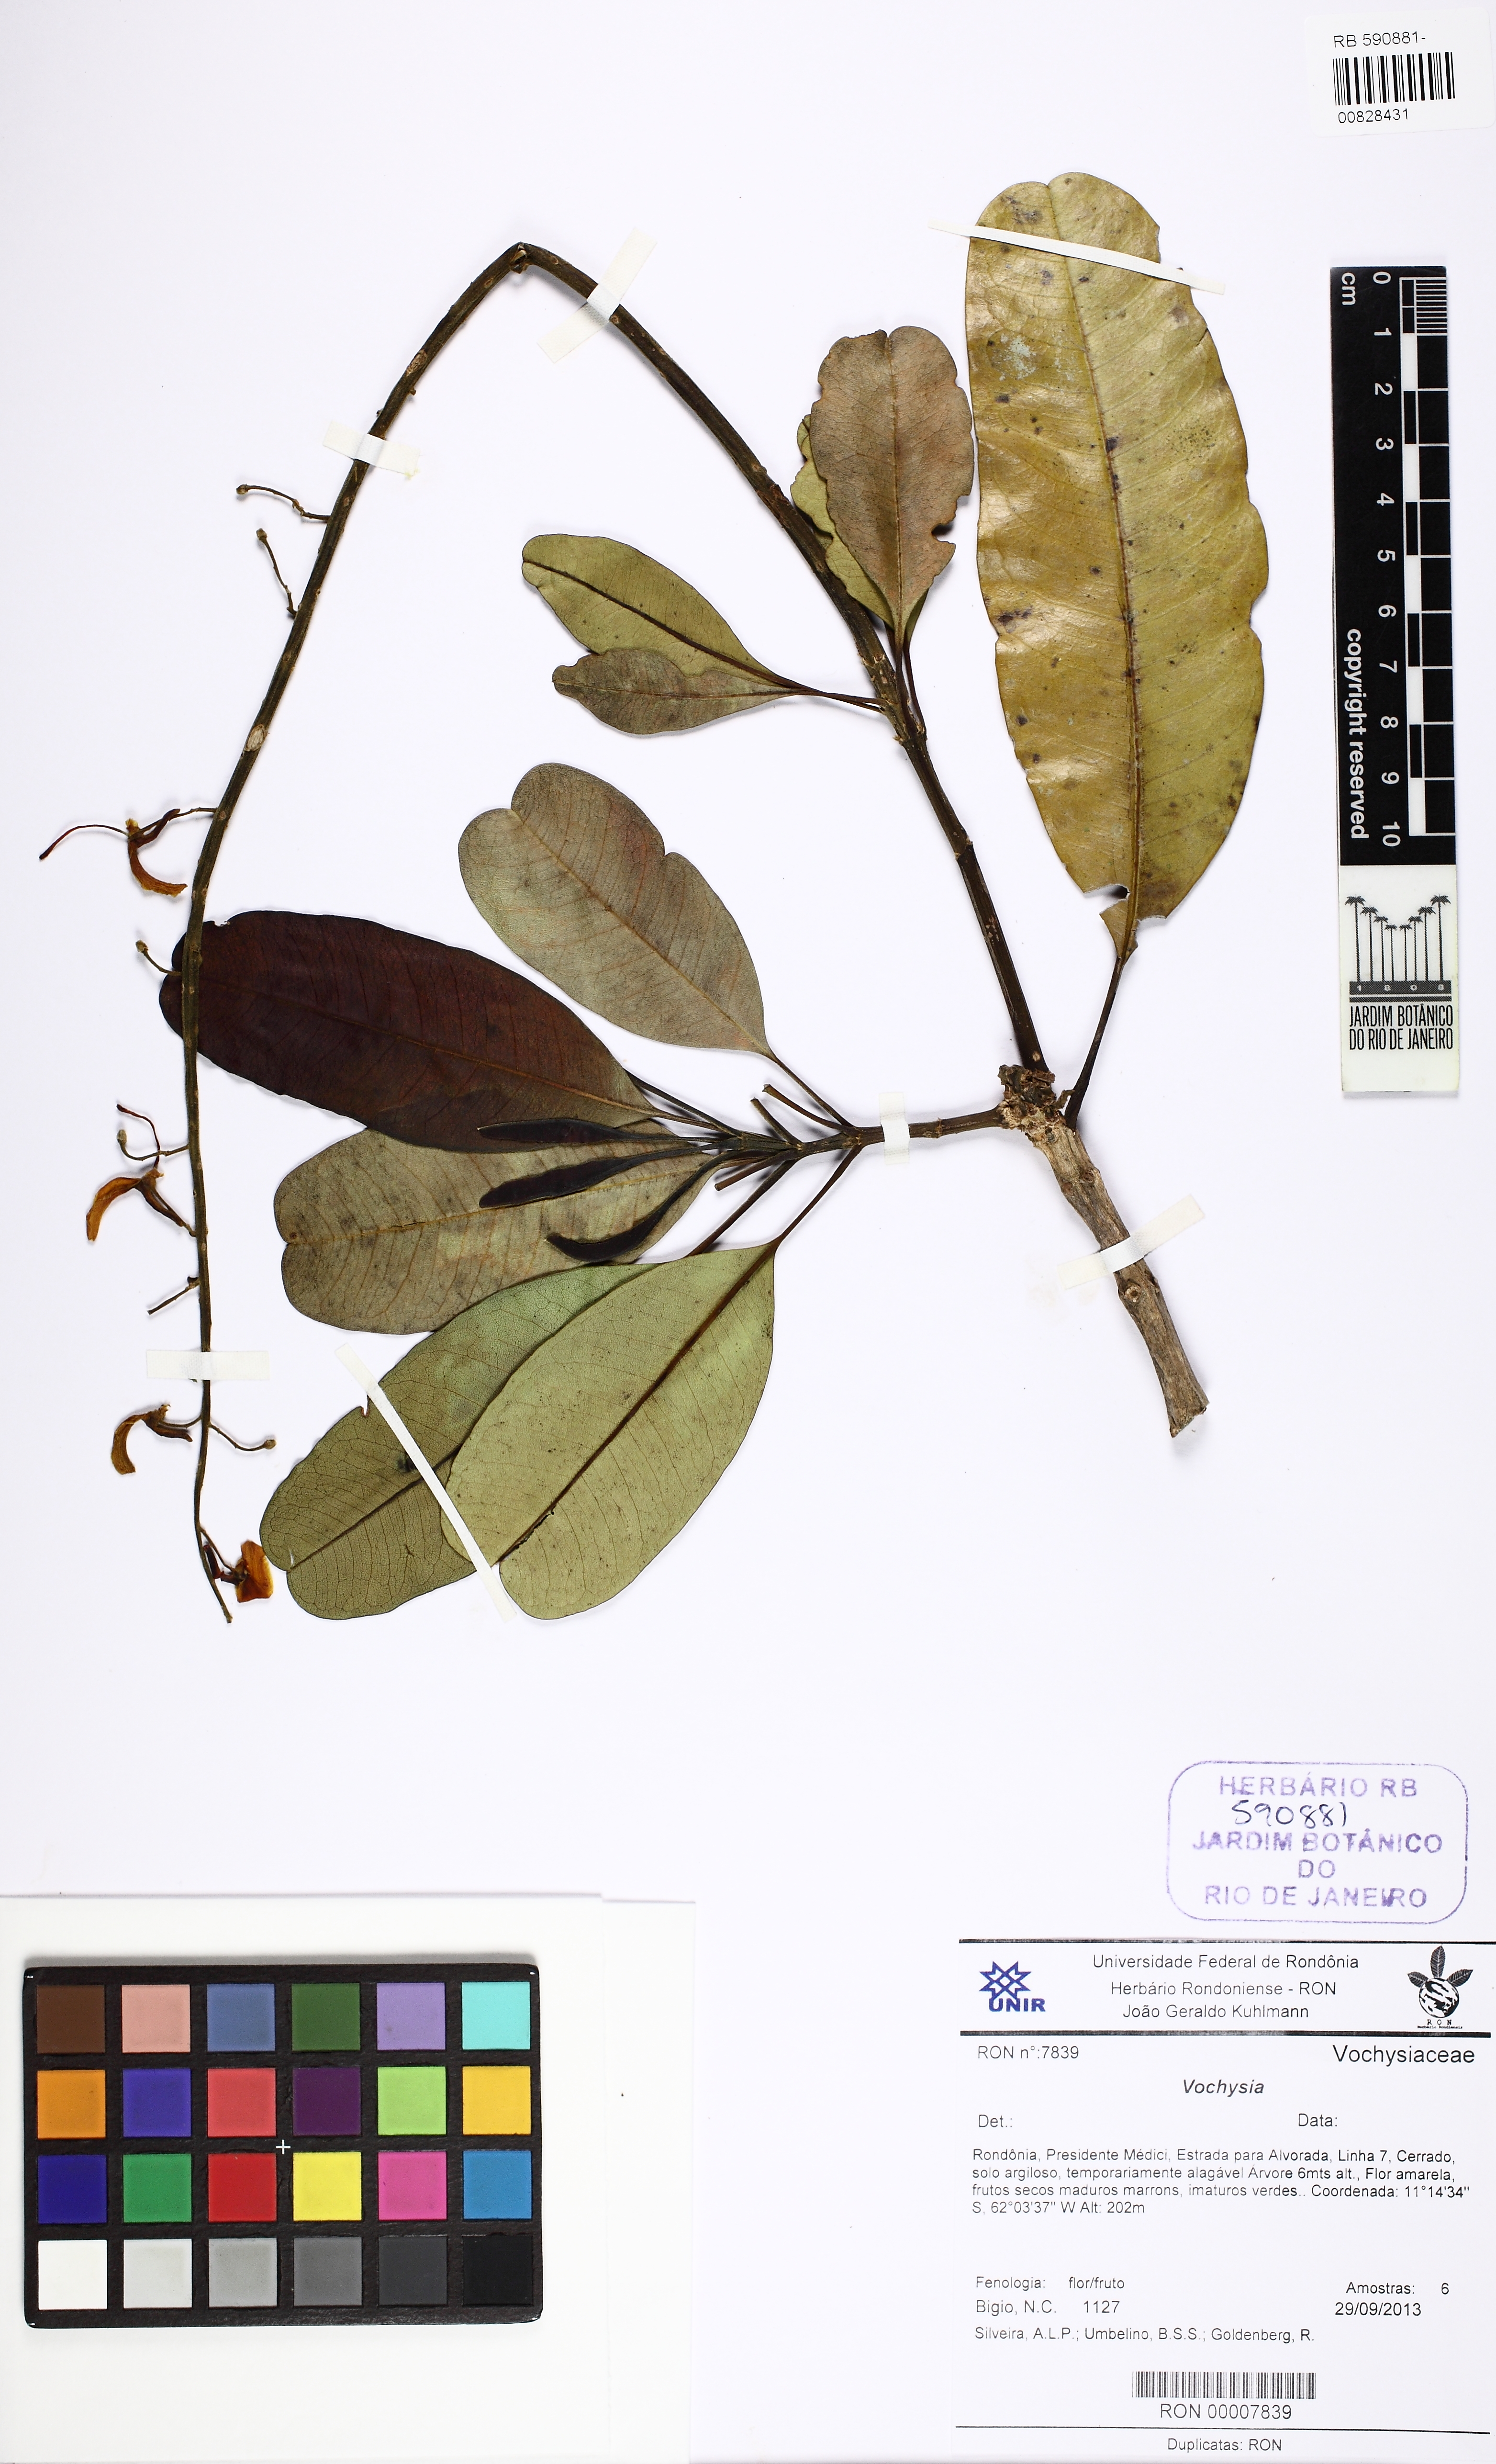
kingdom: Plantae
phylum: Tracheophyta
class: Magnoliopsida
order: Myrtales
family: Vochysiaceae
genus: Vochysia
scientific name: Vochysia
